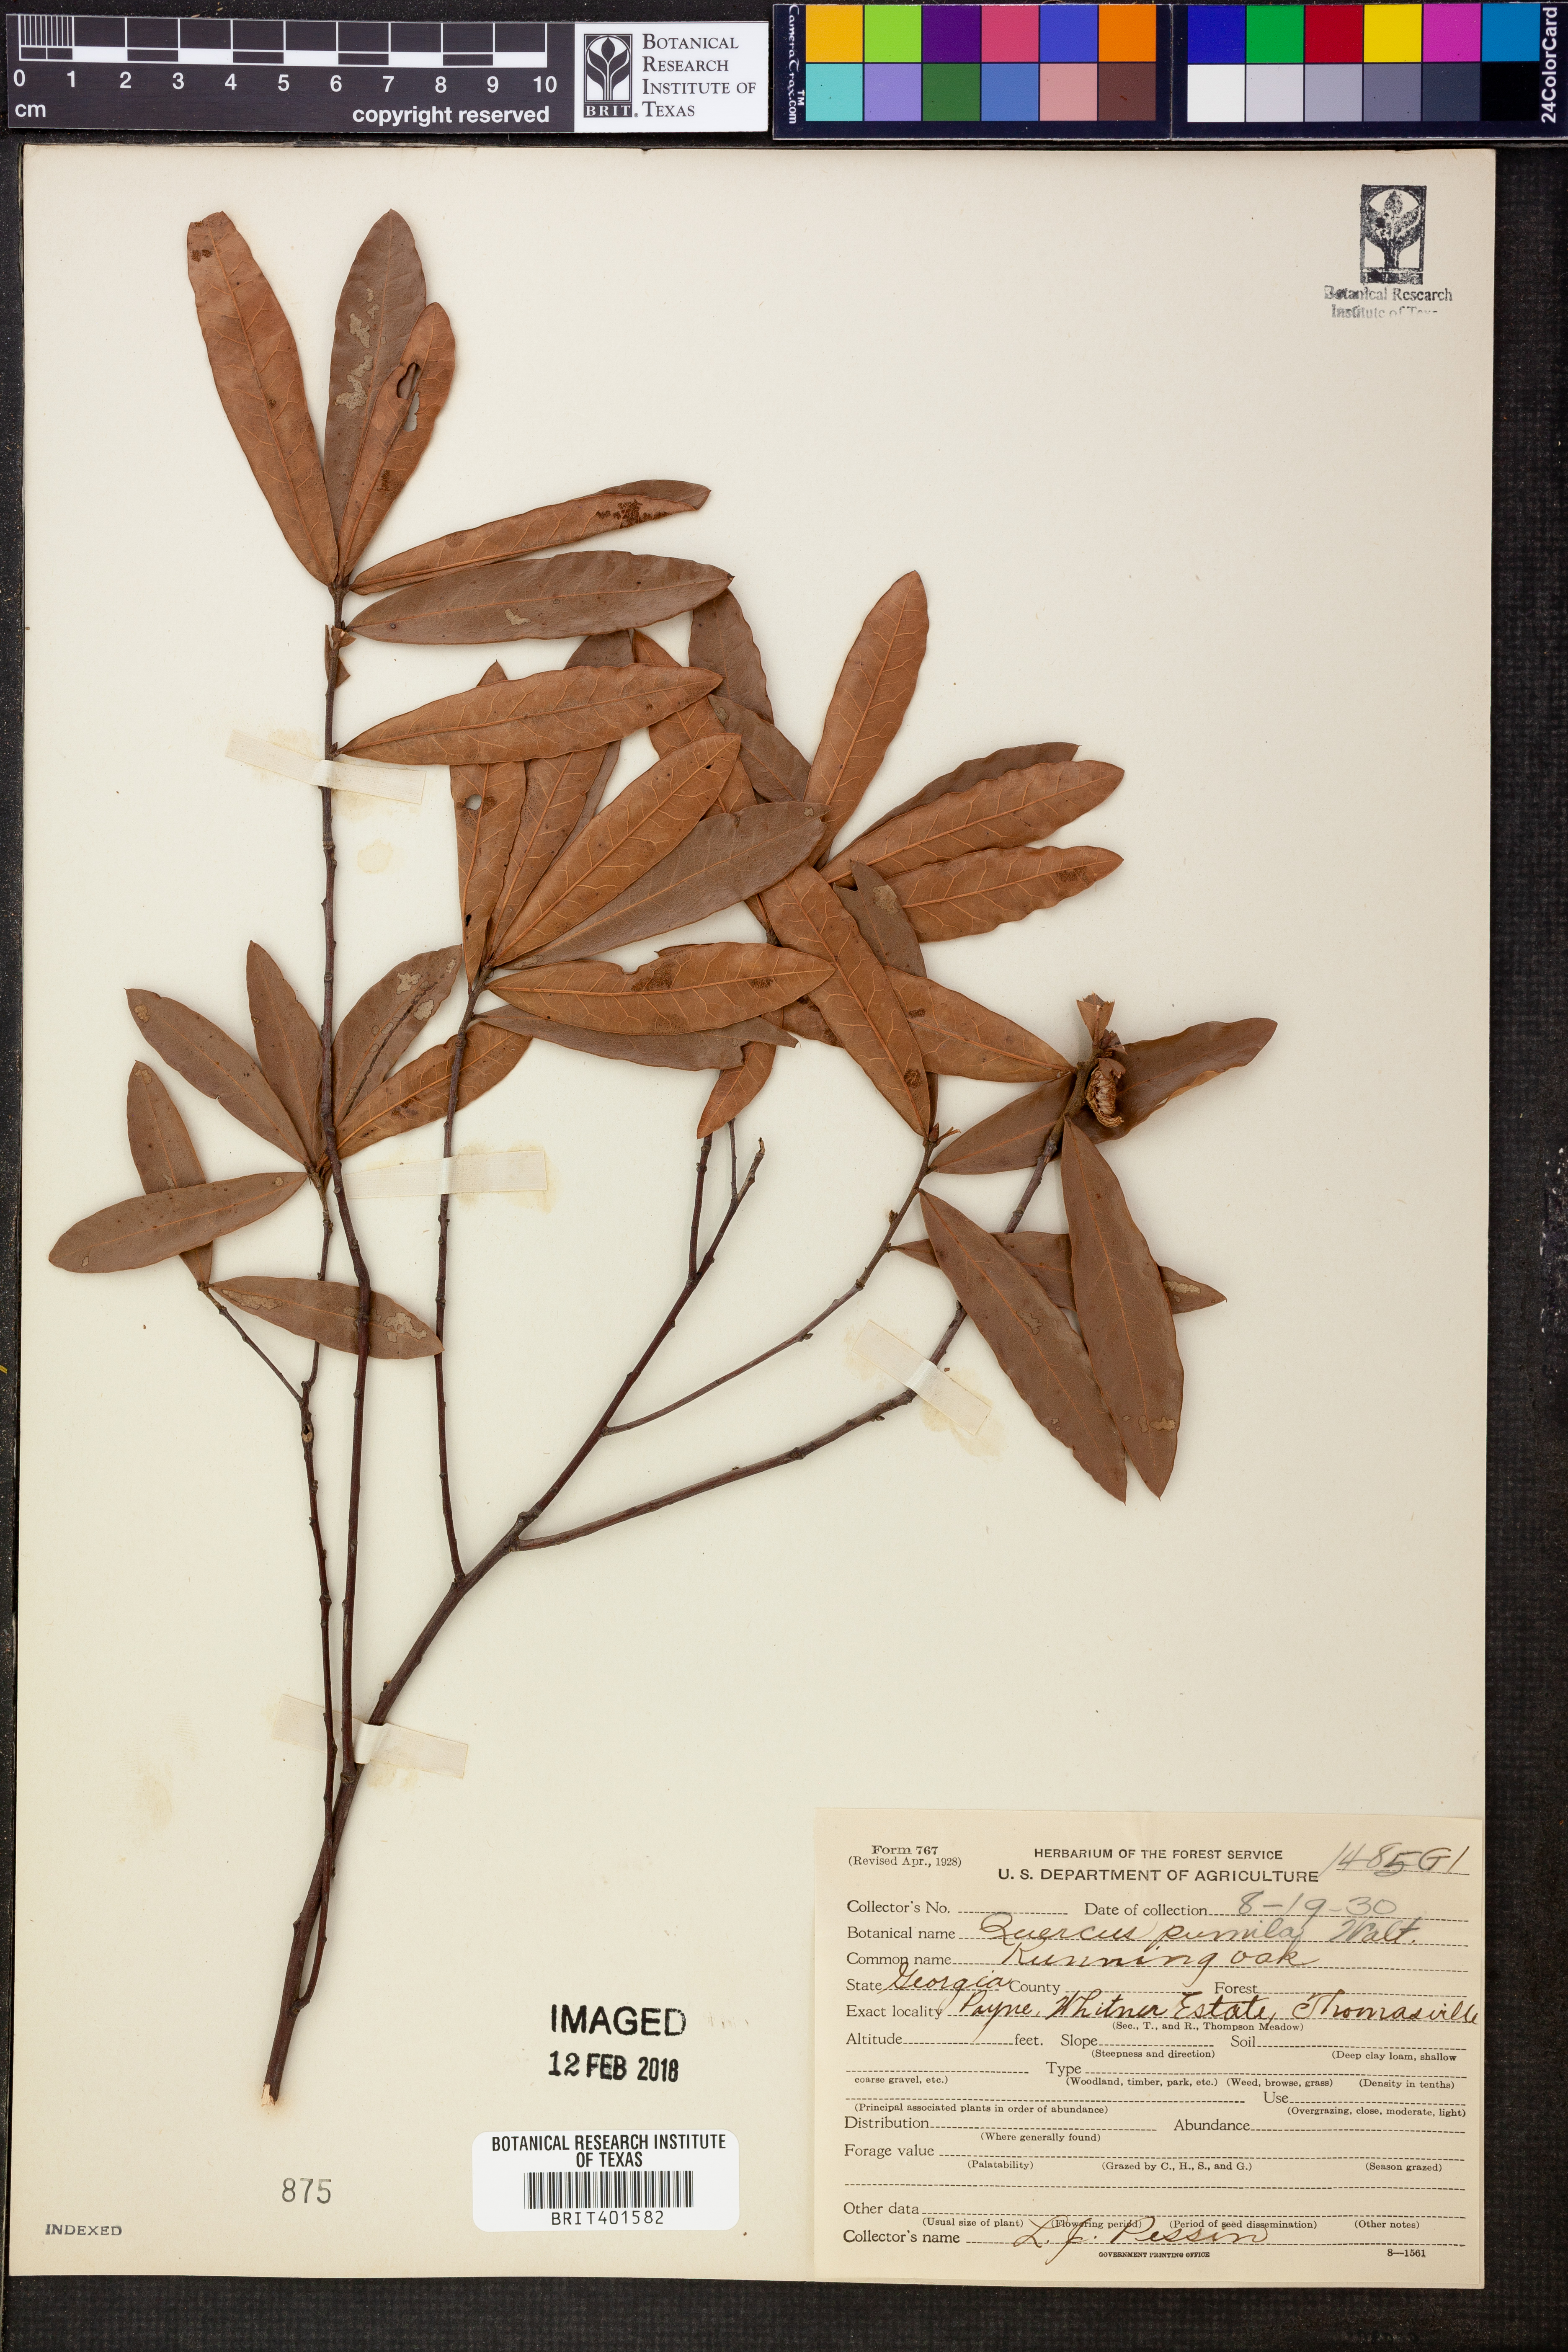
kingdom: Plantae
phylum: Tracheophyta
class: Magnoliopsida
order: Fagales
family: Fagaceae
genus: Quercus
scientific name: Quercus pumila
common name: Runner oak
